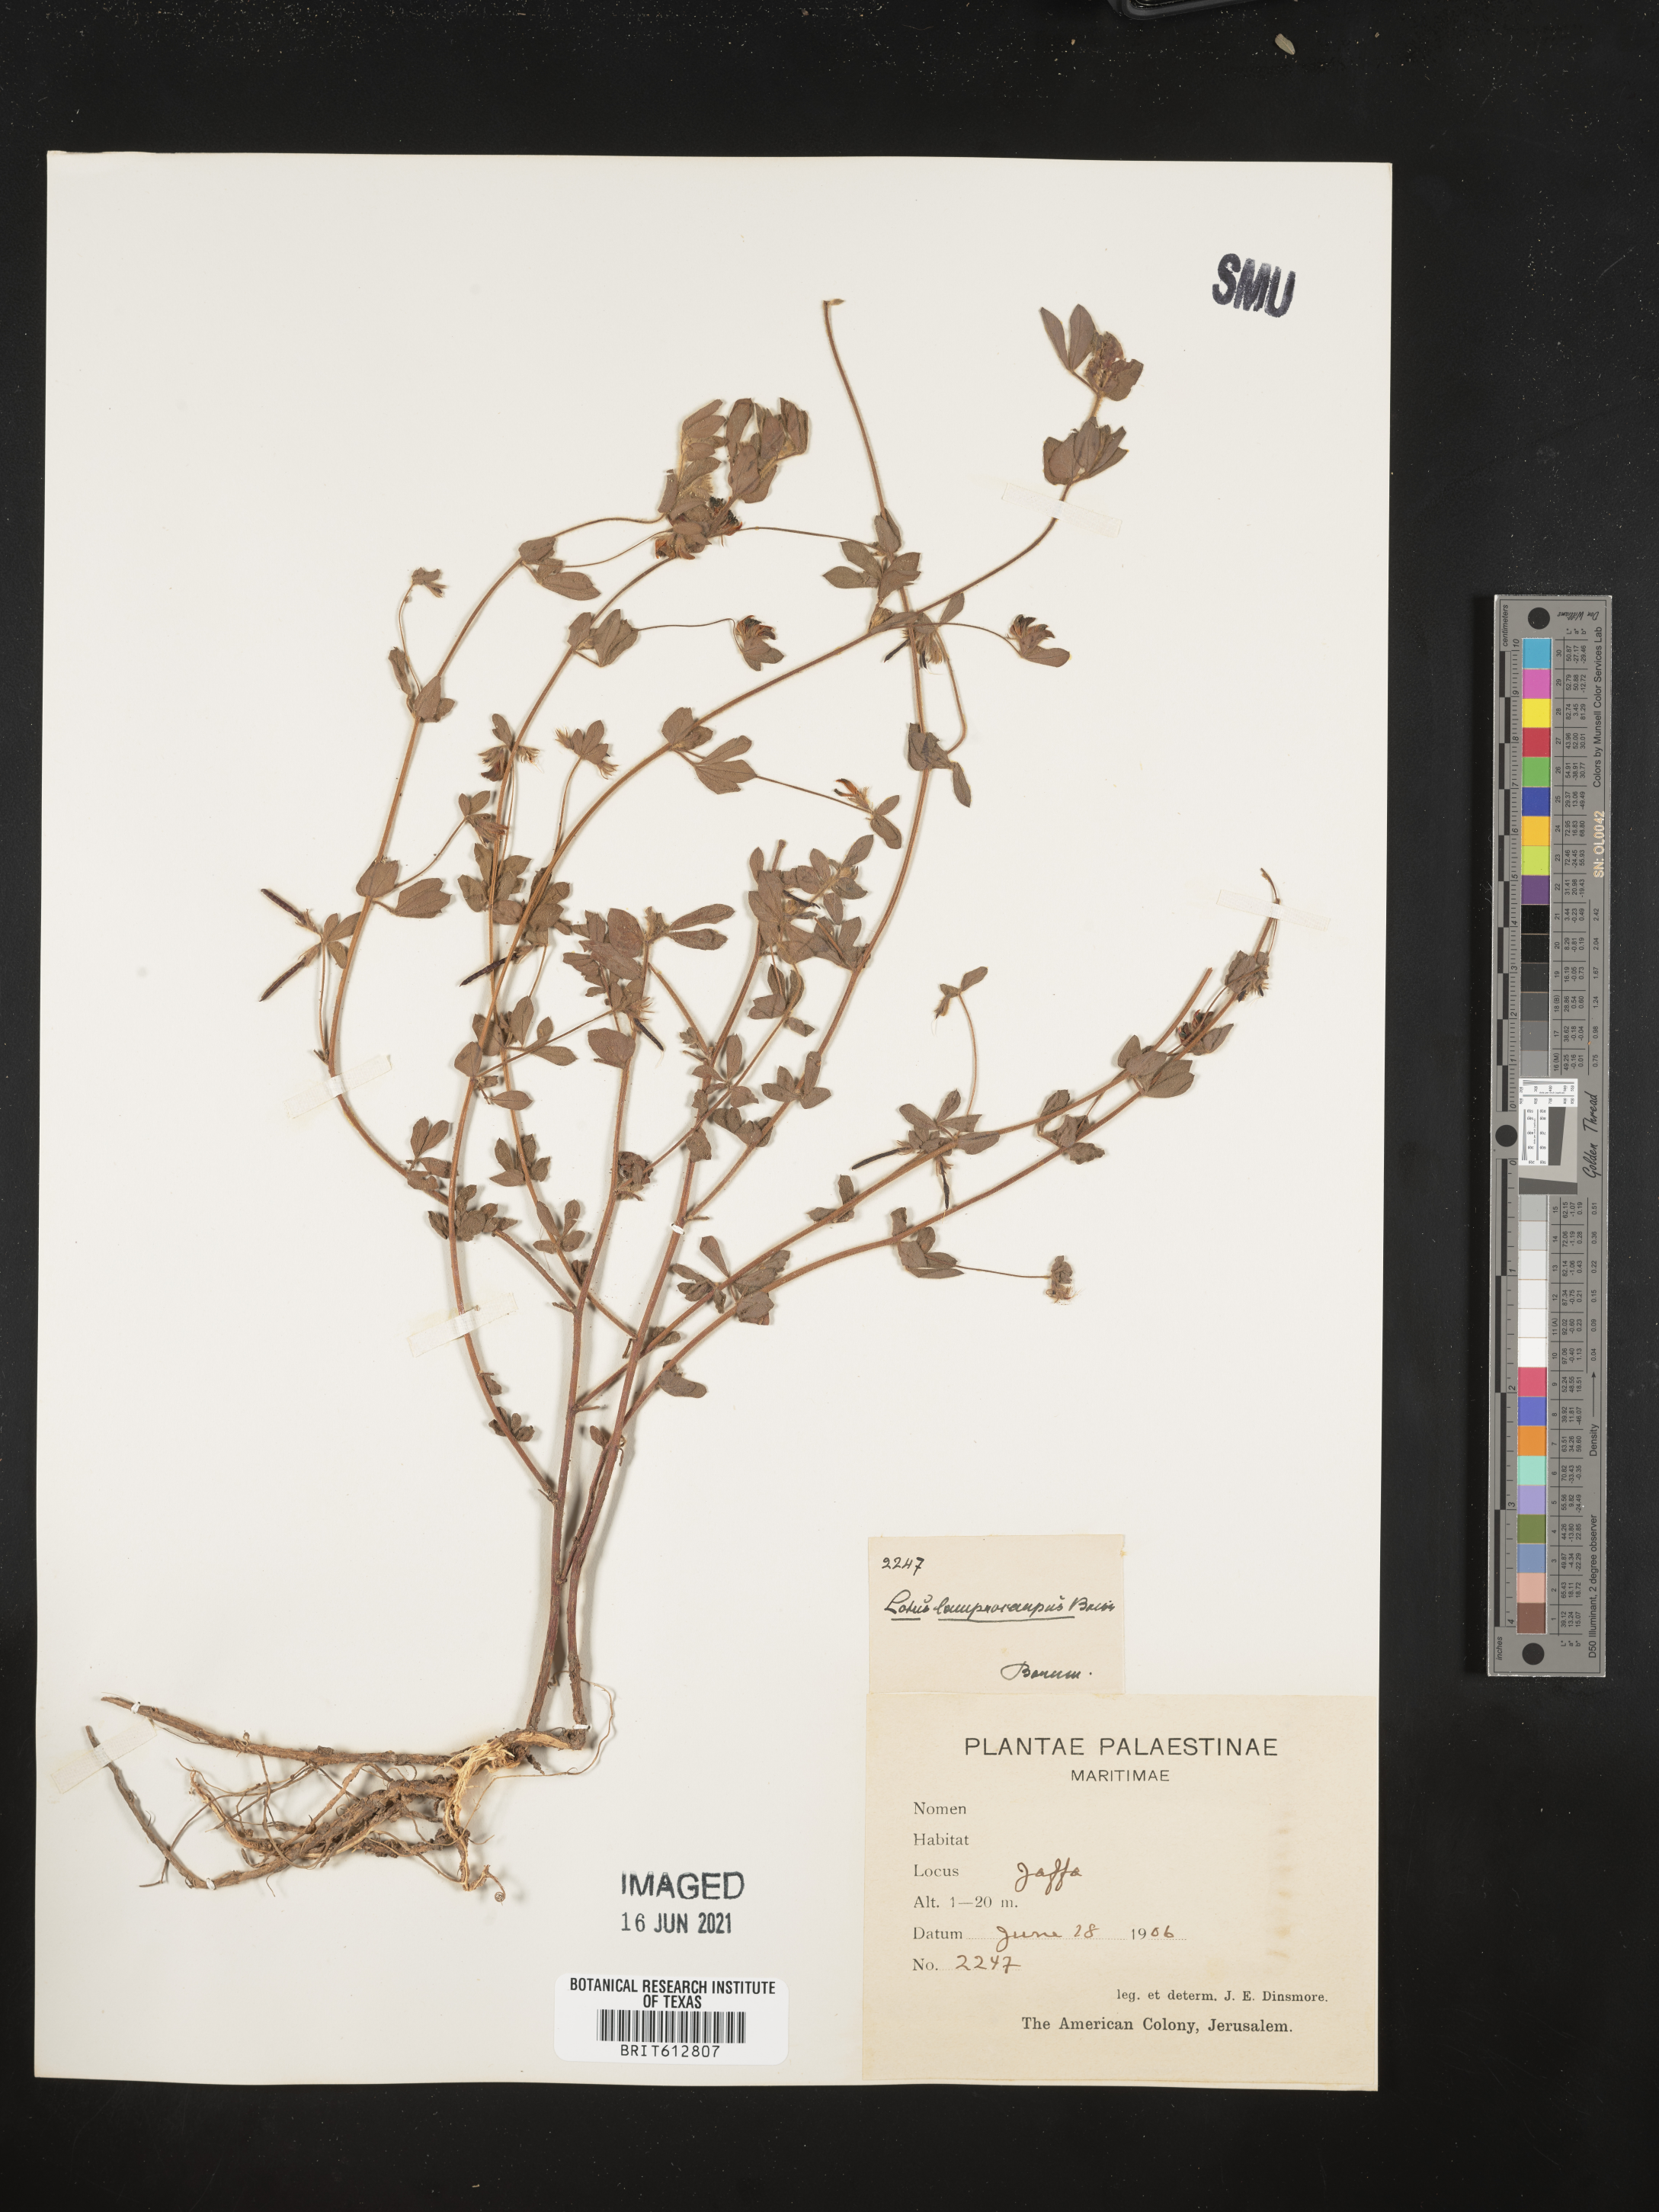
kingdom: Plantae
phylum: Tracheophyta
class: Magnoliopsida
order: Fabales
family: Fabaceae
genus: Lotus
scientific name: Lotus
